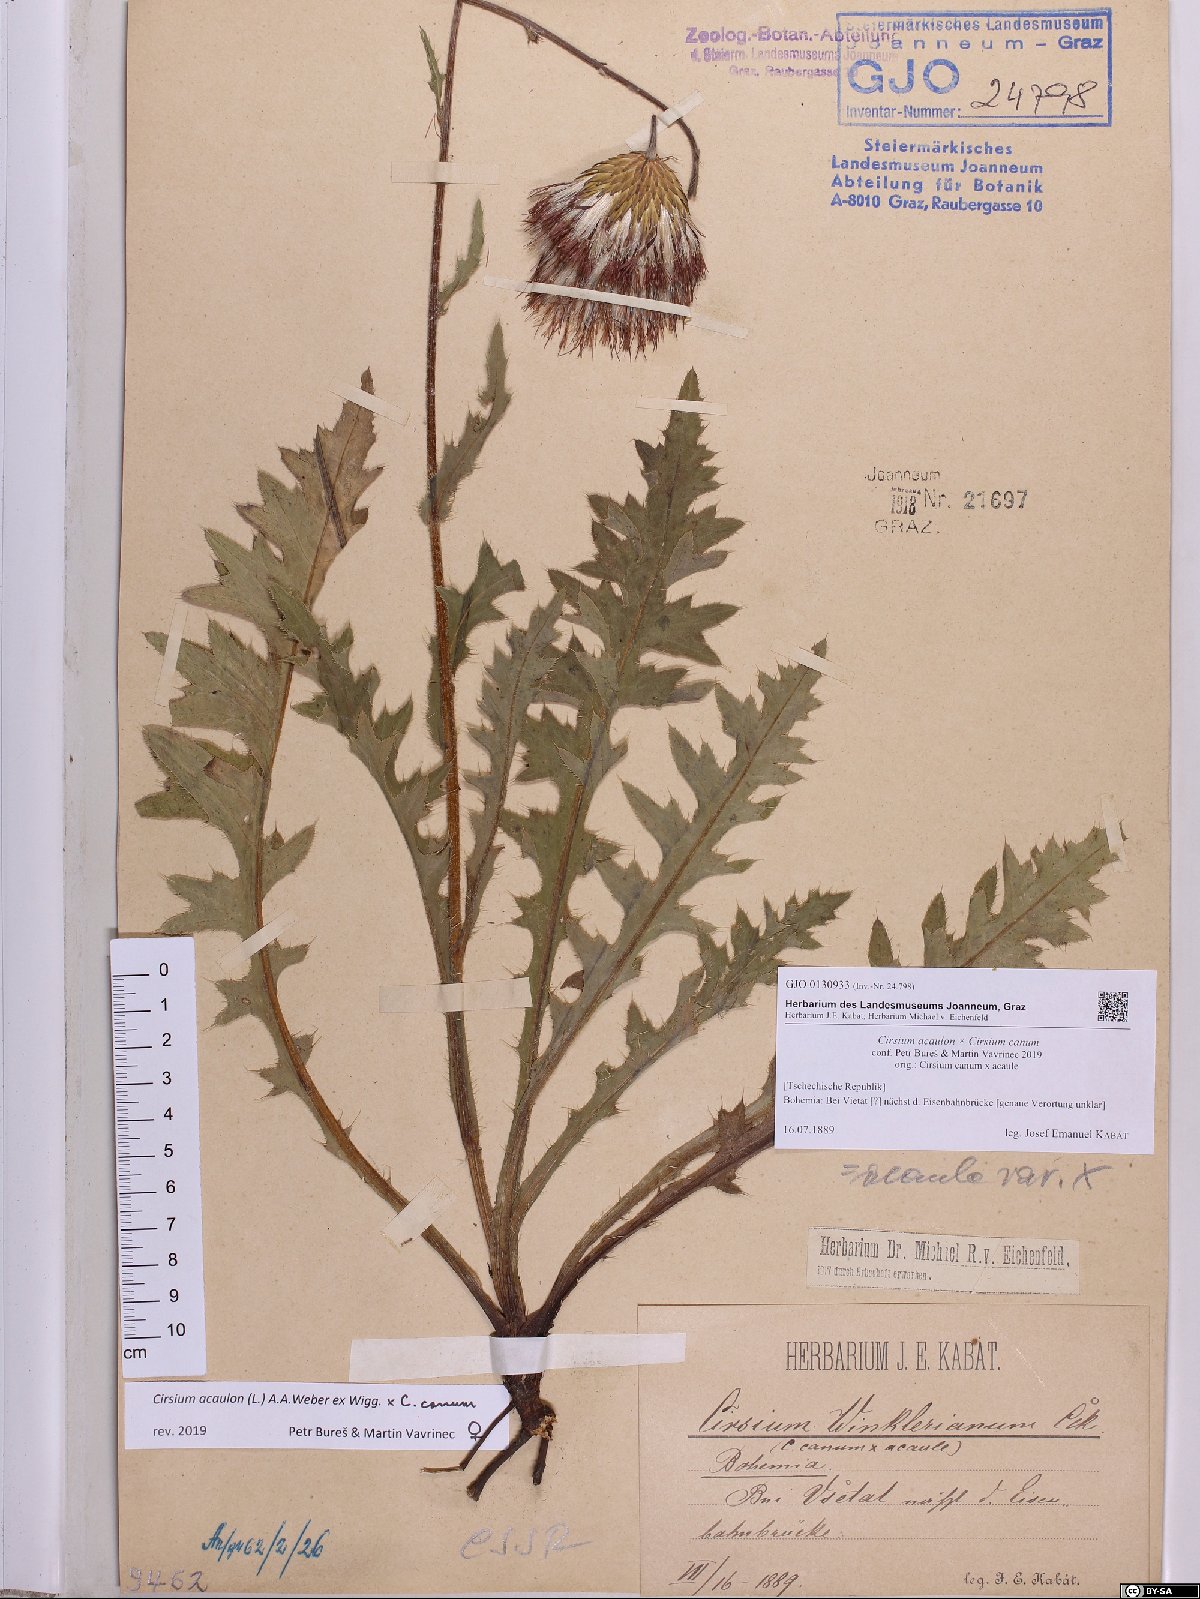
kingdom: Plantae
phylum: Tracheophyta
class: Magnoliopsida
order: Asterales
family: Asteraceae
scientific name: Asteraceae
